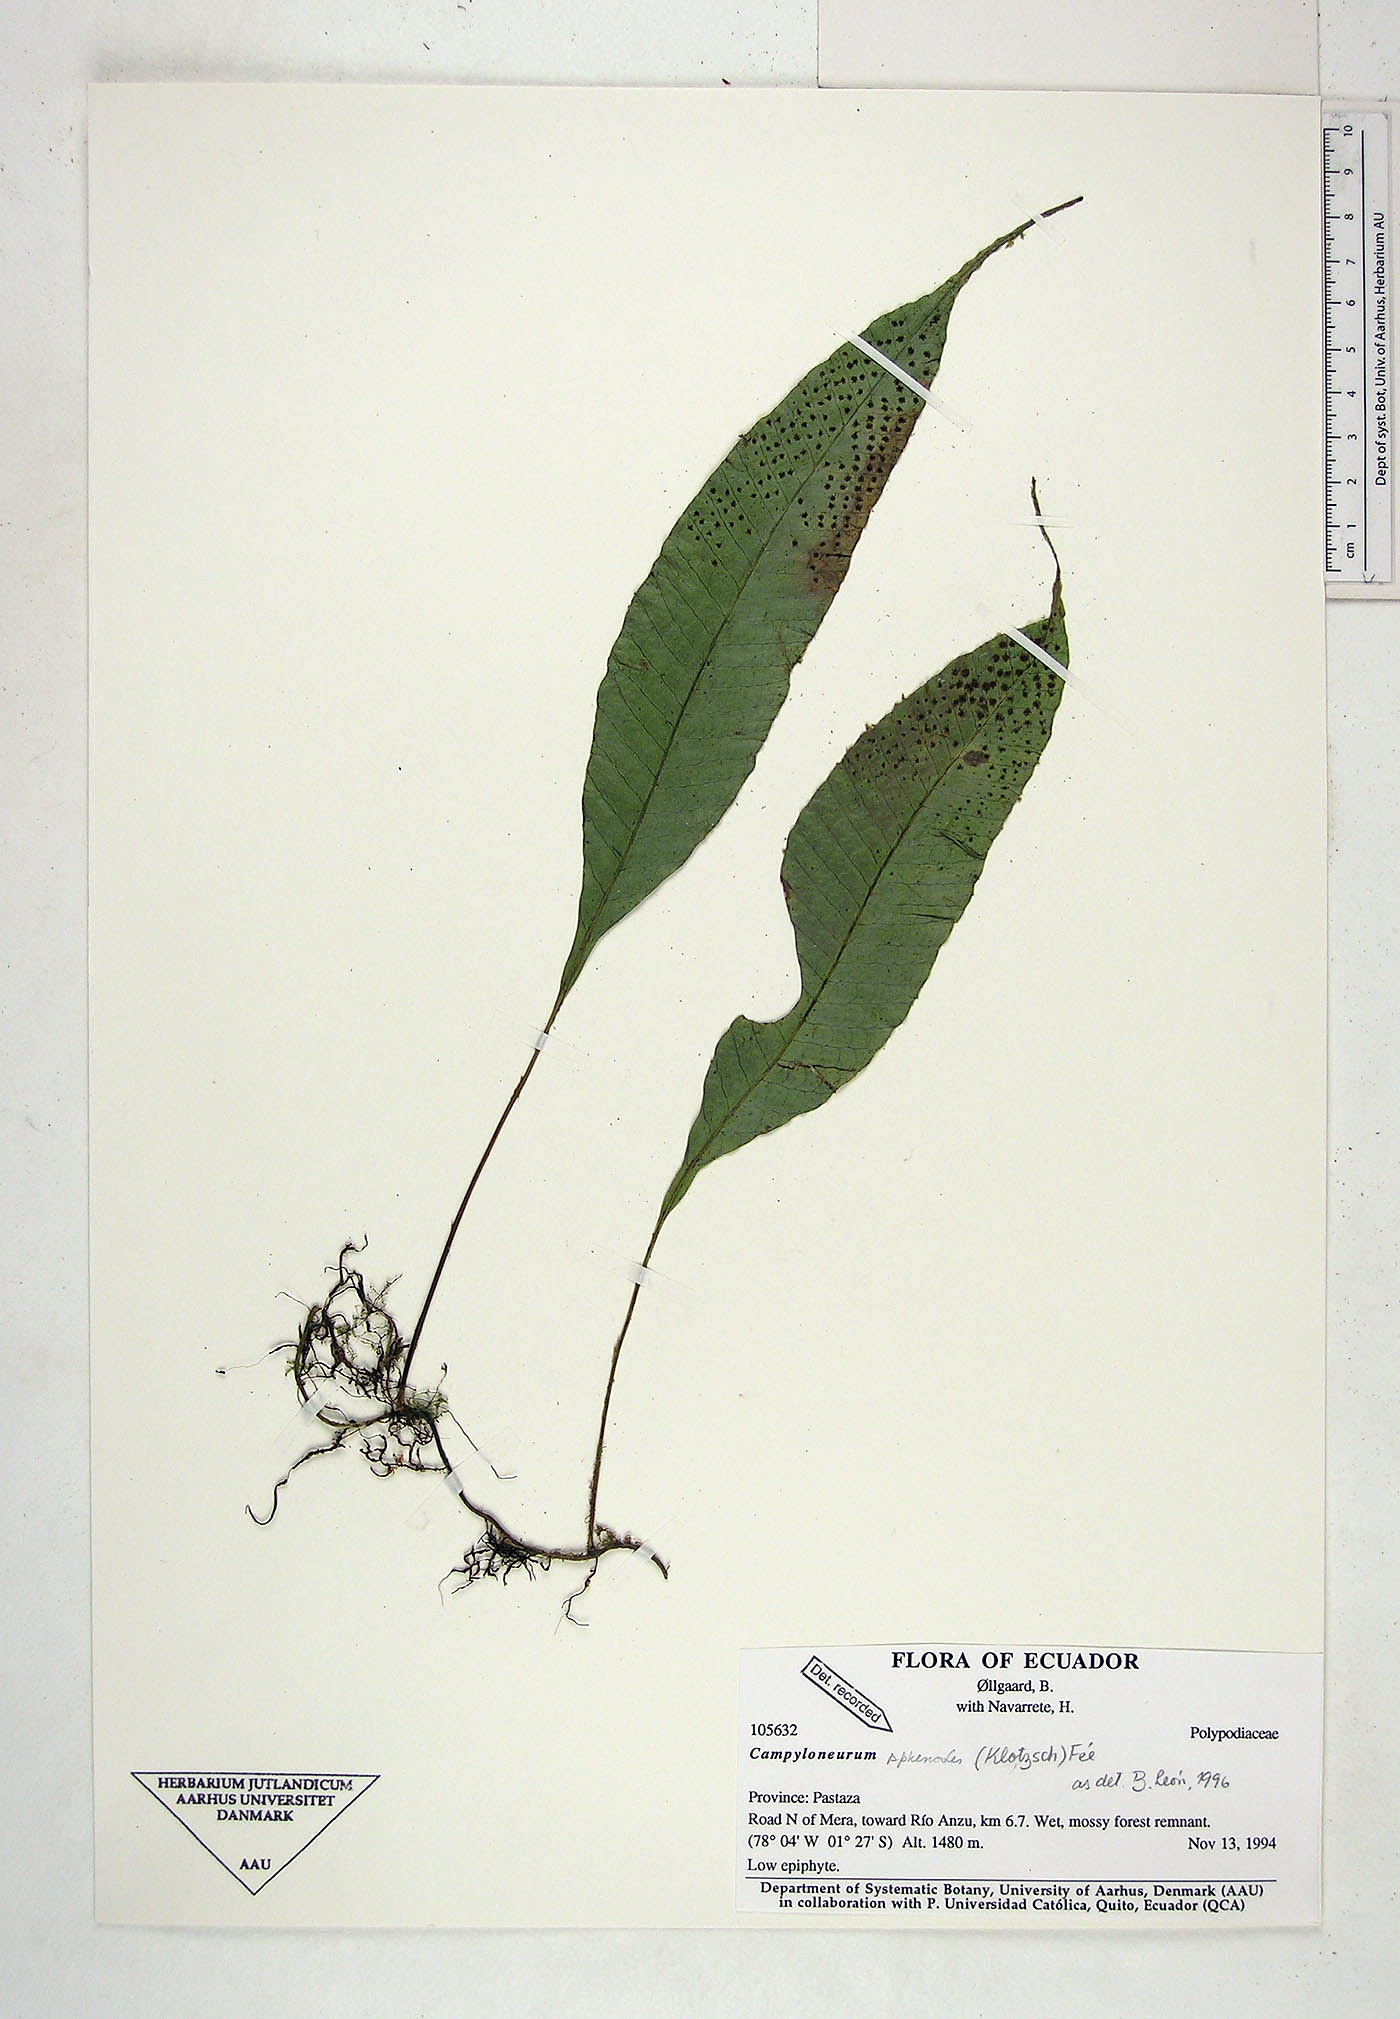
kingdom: Plantae
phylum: Tracheophyta
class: Polypodiopsida
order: Polypodiales
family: Polypodiaceae
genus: Campyloneurum
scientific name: Campyloneurum sphenodes
